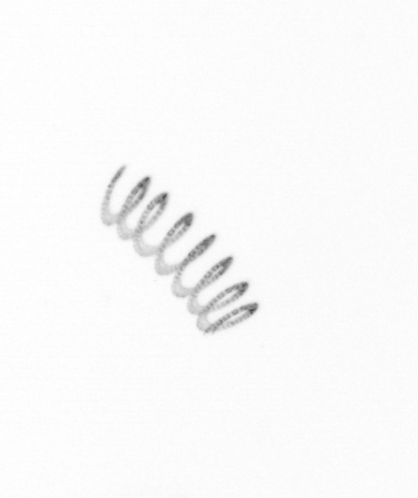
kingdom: Chromista
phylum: Ochrophyta
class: Bacillariophyceae
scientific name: Bacillariophyceae
